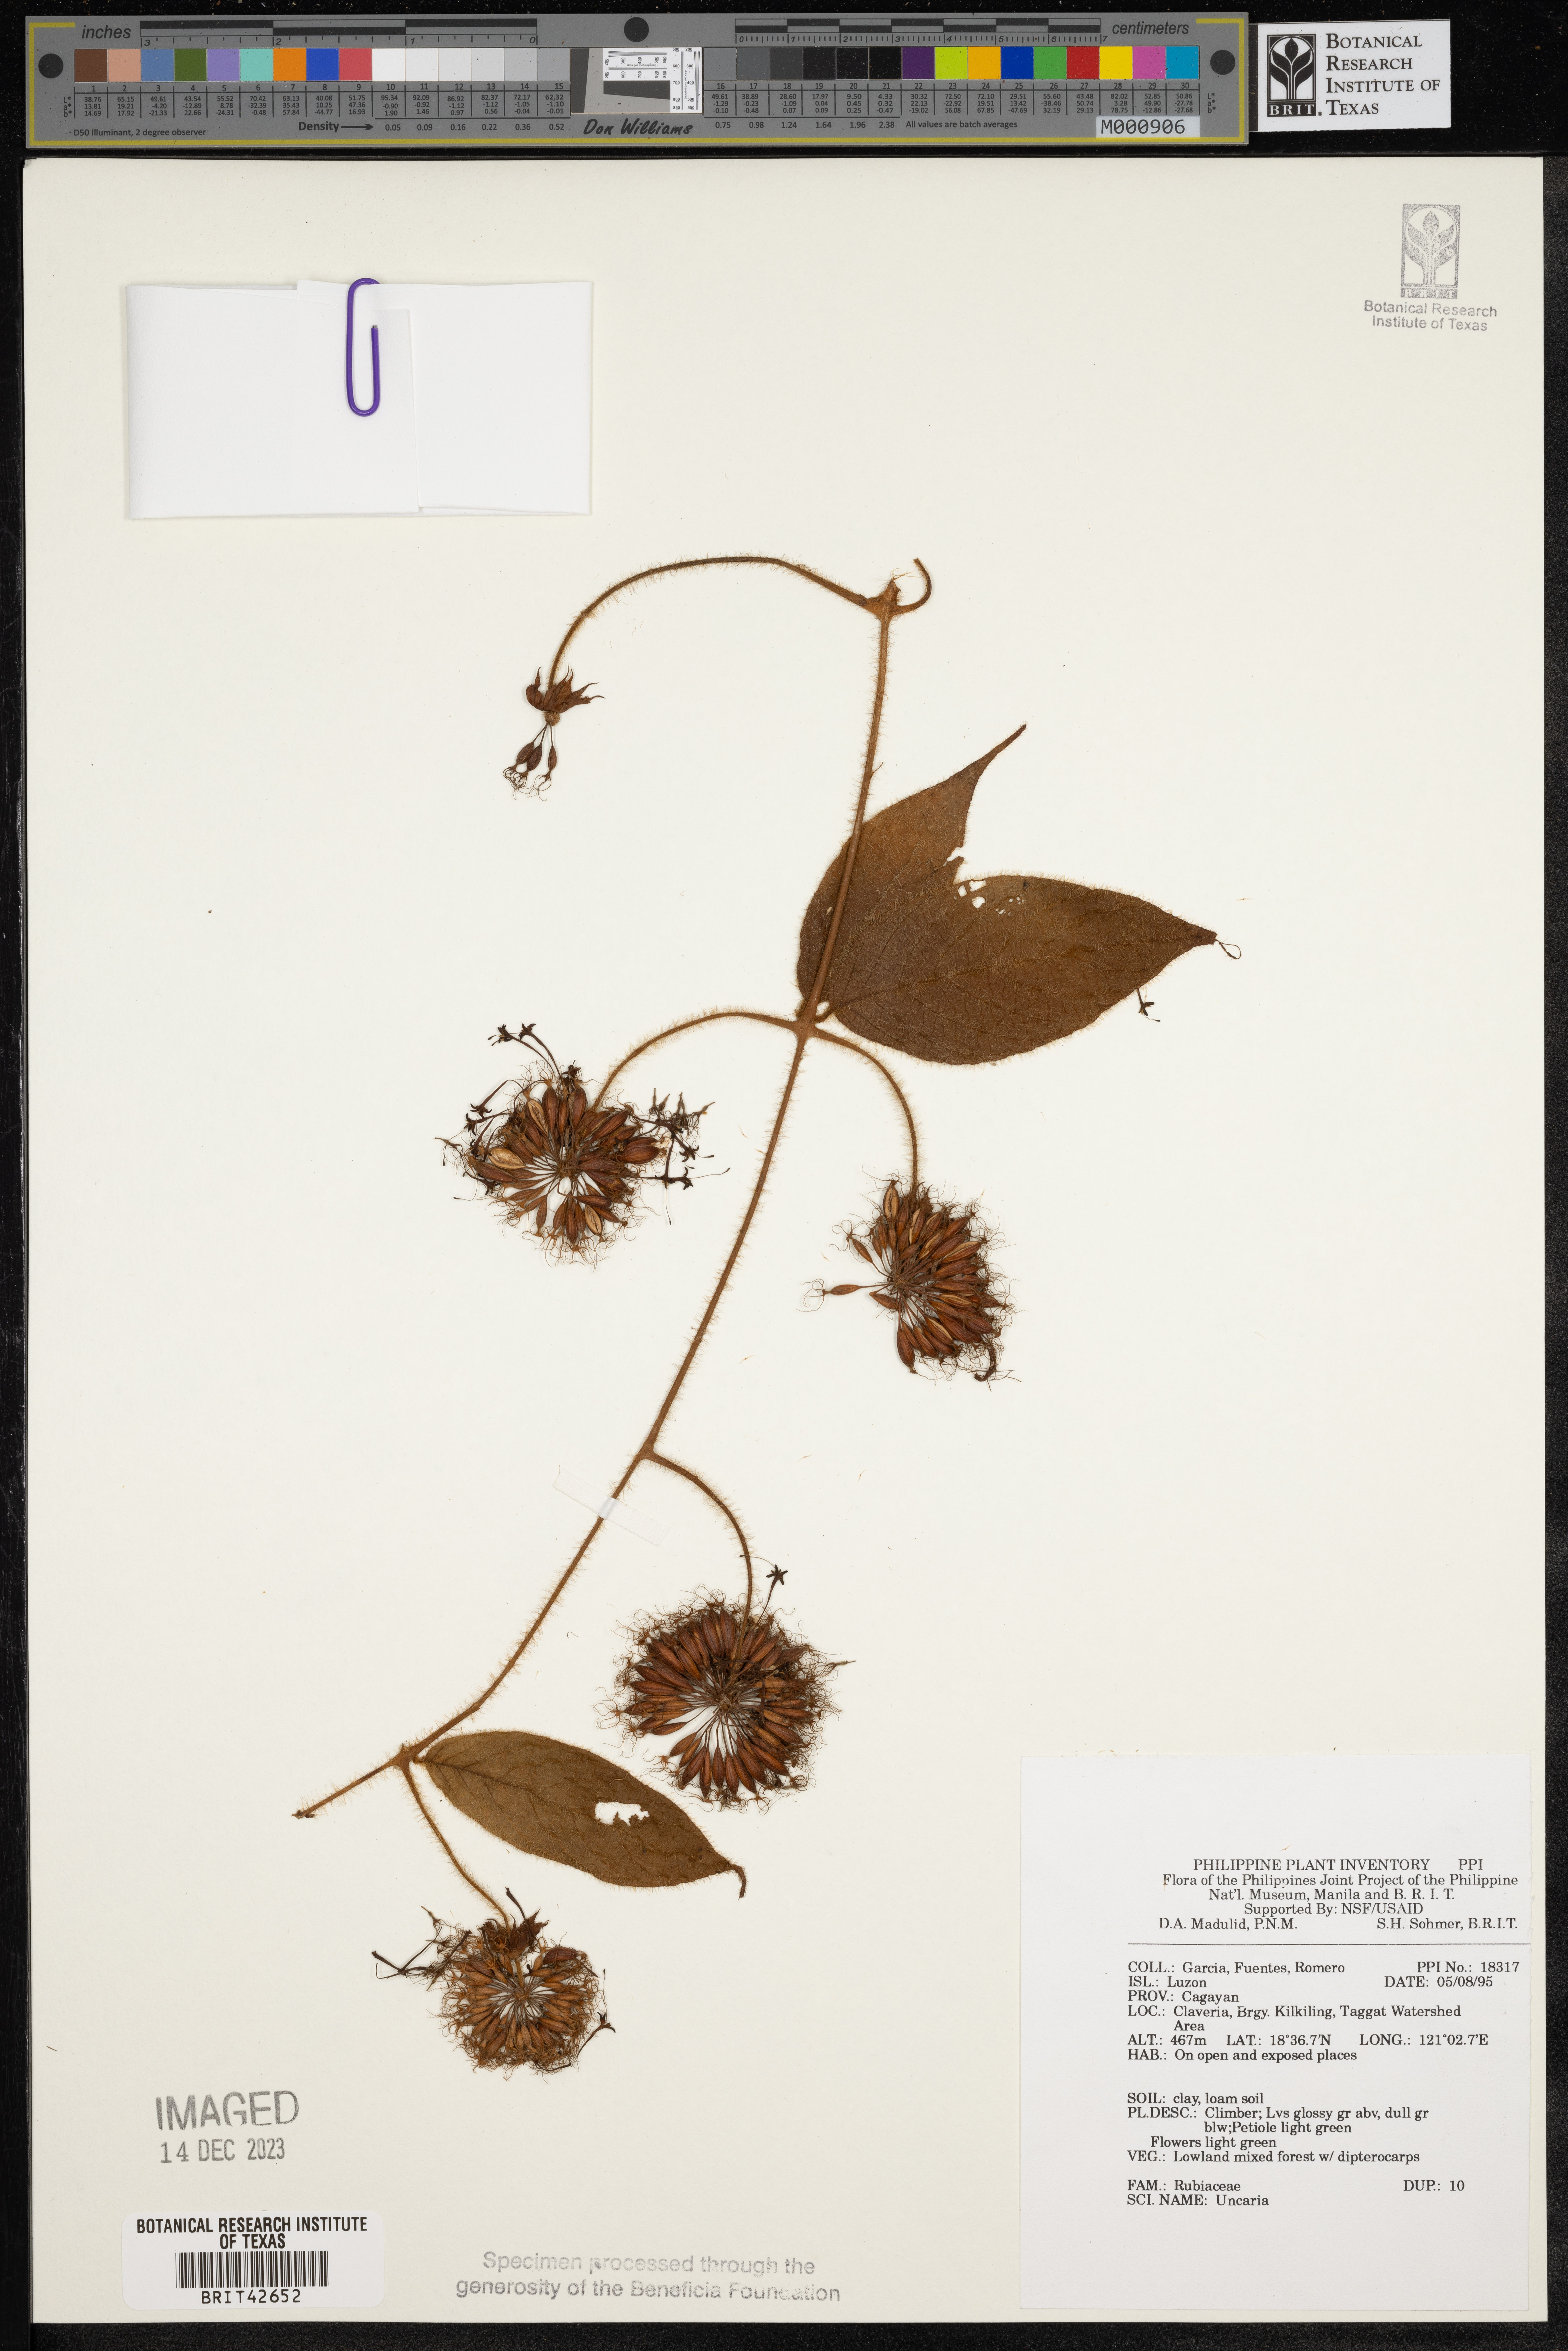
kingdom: Plantae
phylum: Tracheophyta
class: Magnoliopsida
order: Gentianales
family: Rubiaceae
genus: Uncaria
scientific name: Uncaria
